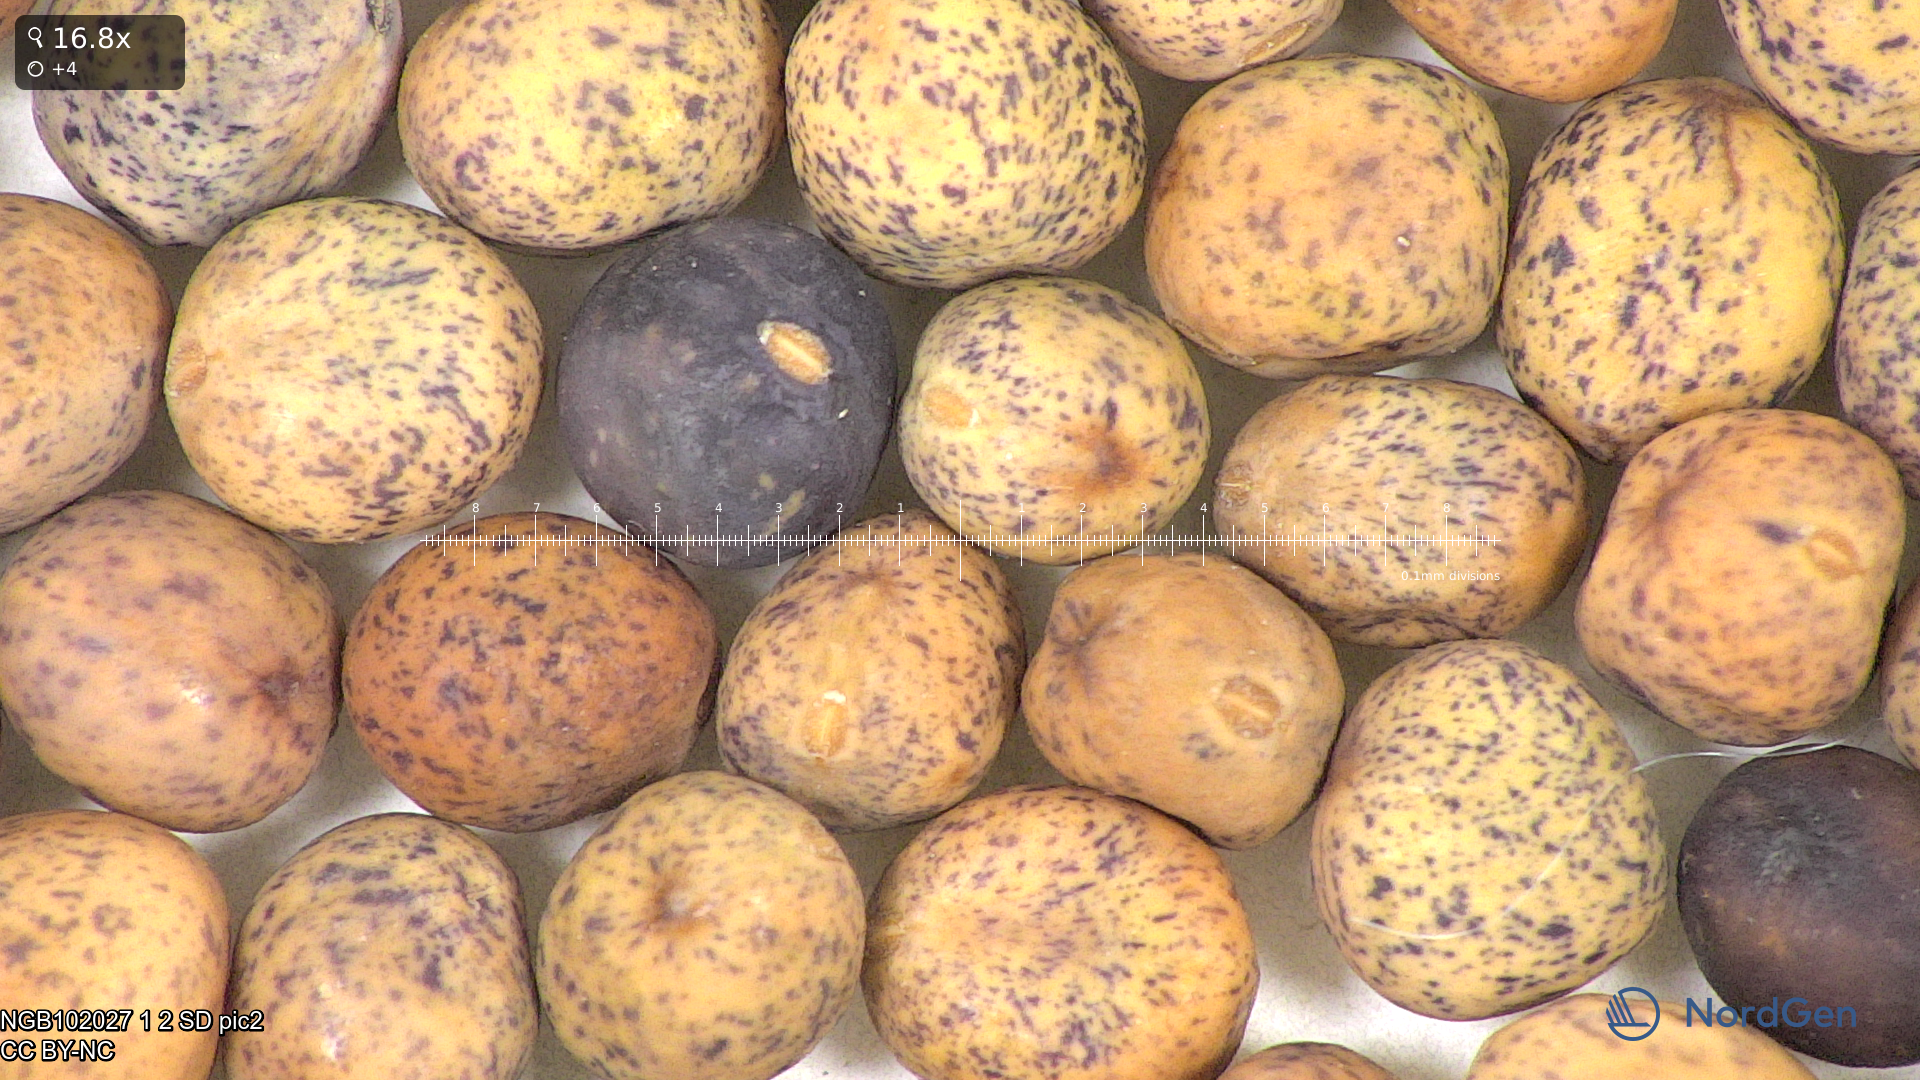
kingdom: Plantae
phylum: Tracheophyta
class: Magnoliopsida
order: Fabales
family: Fabaceae
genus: Lathyrus
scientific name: Lathyrus oleraceus
